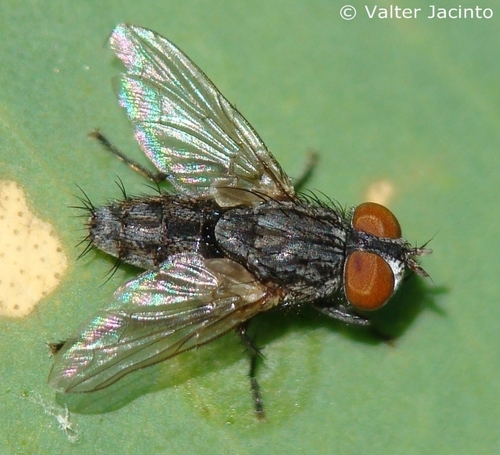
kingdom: Animalia
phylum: Arthropoda
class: Insecta
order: Diptera
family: Sarcophagidae
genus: Blaesoxipha
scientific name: Blaesoxipha
